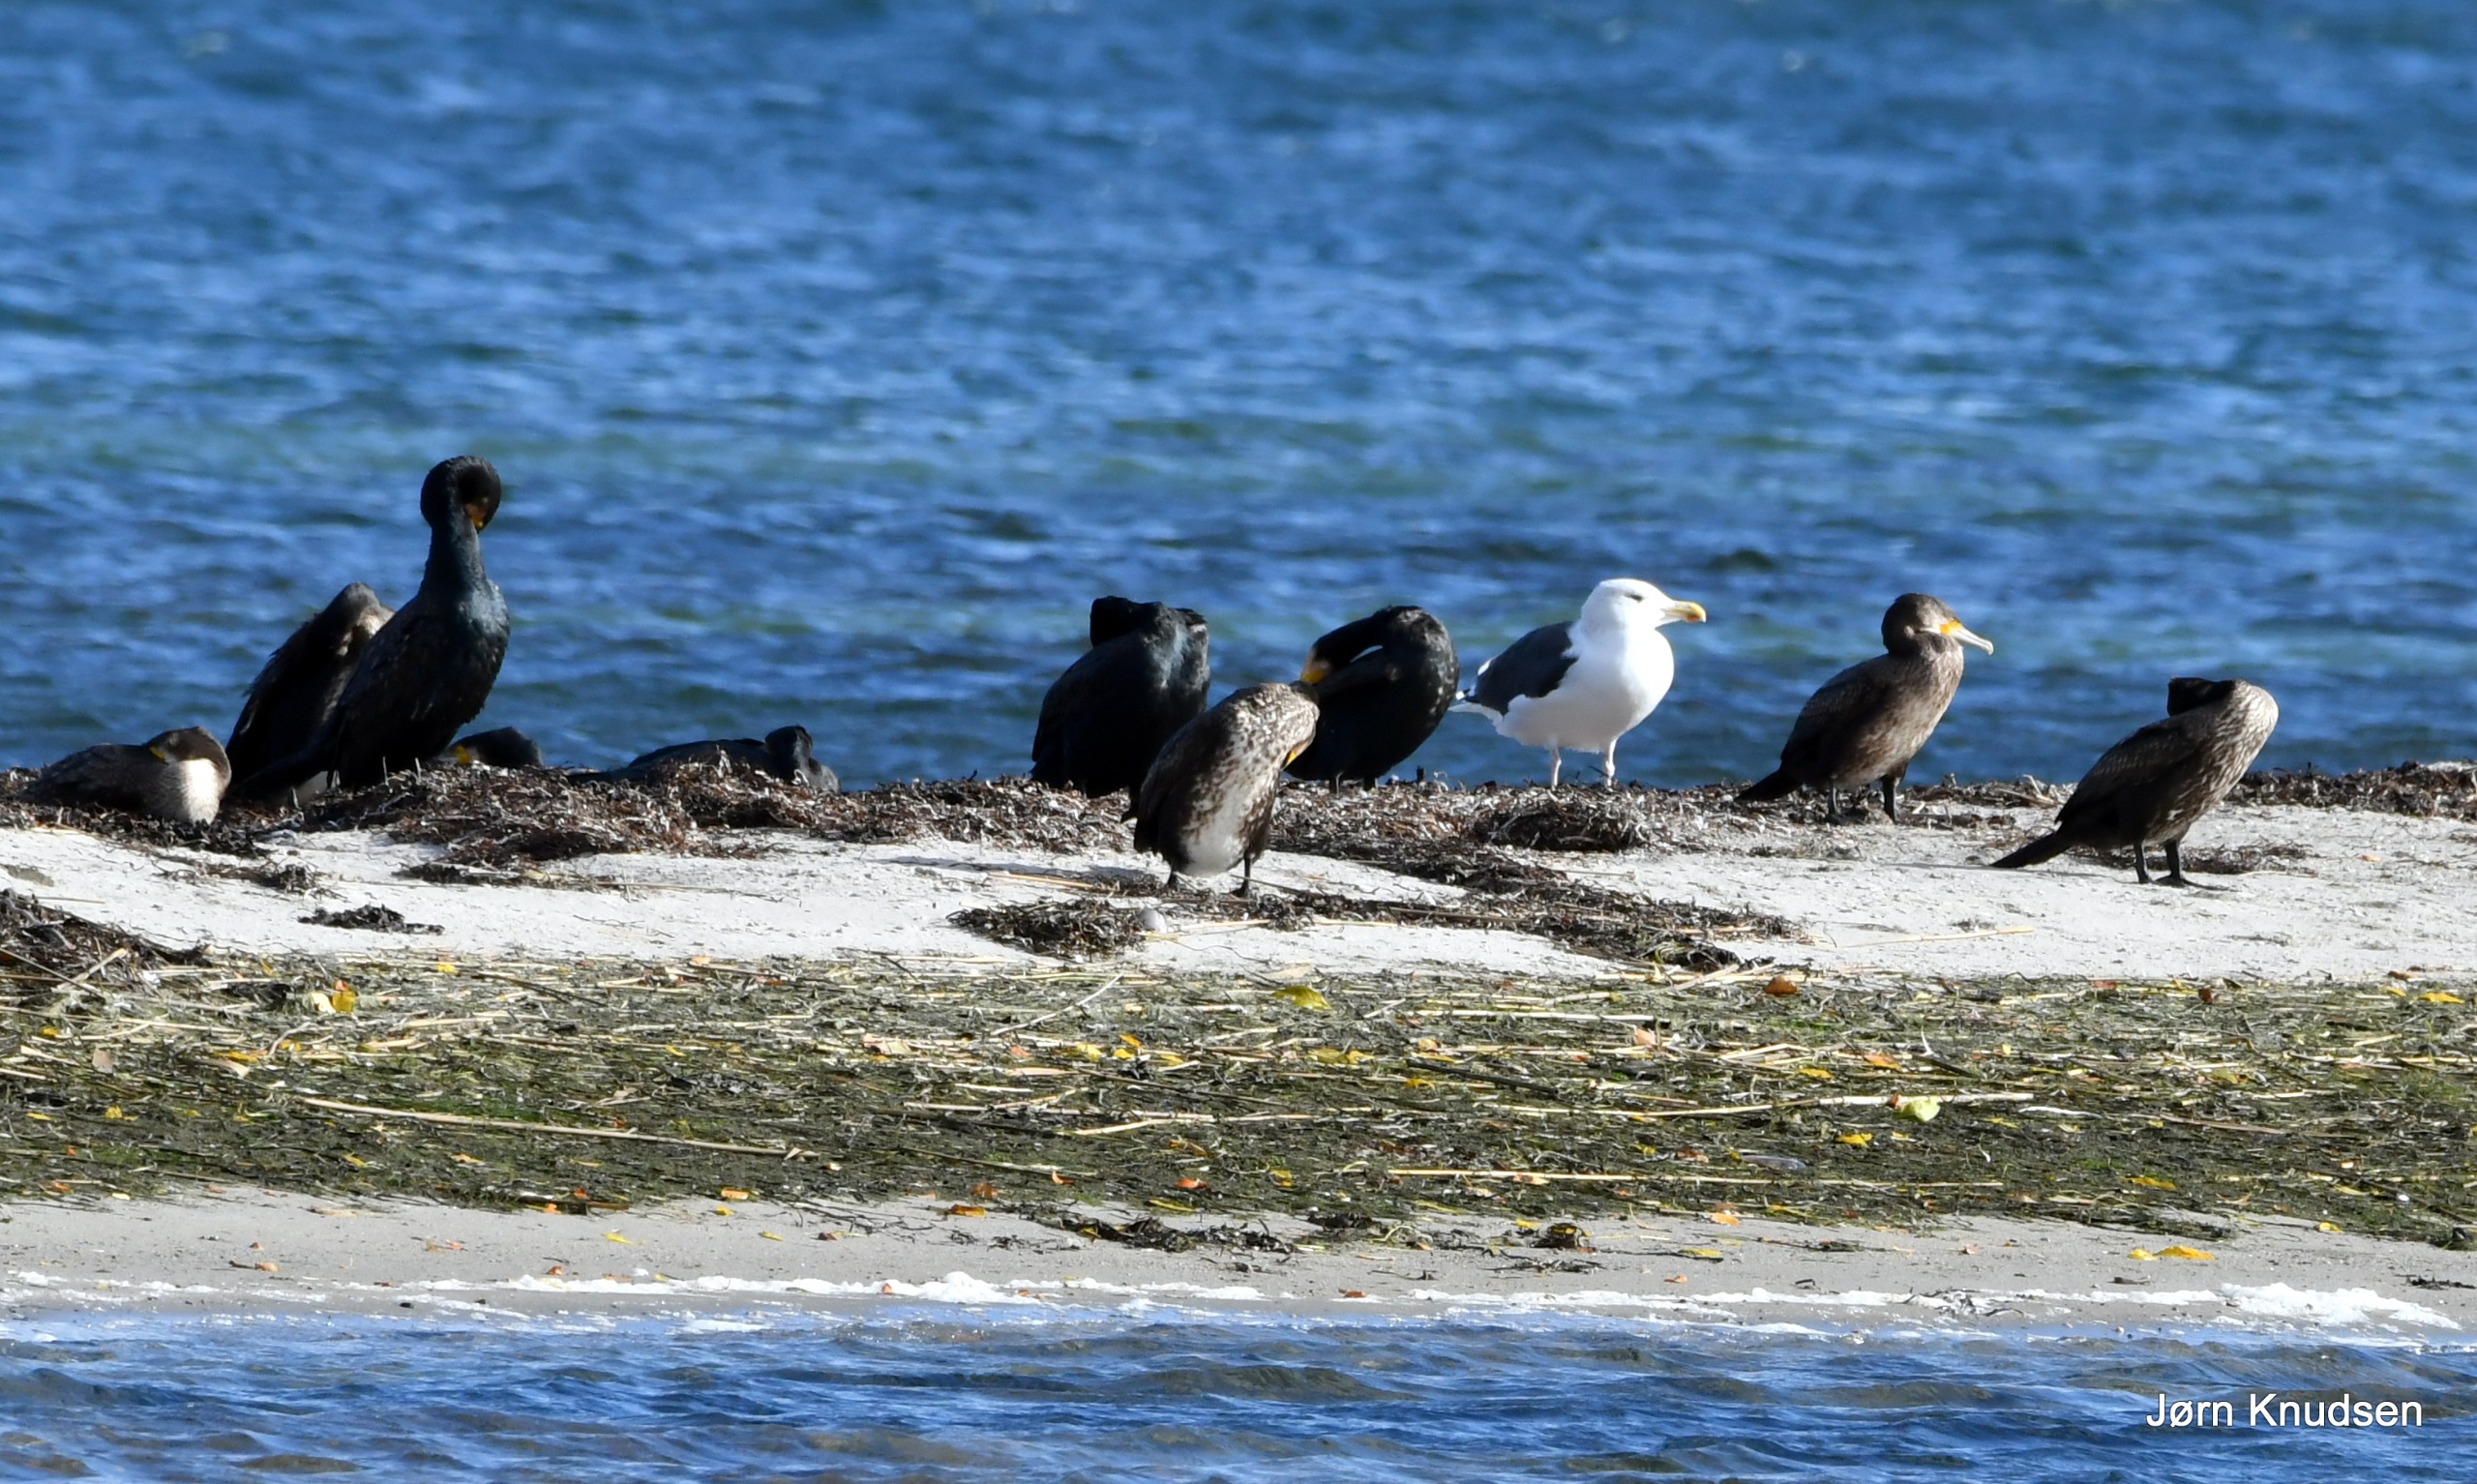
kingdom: Animalia
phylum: Chordata
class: Aves
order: Suliformes
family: Phalacrocoracidae
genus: Phalacrocorax
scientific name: Phalacrocorax carbo
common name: Skarv
